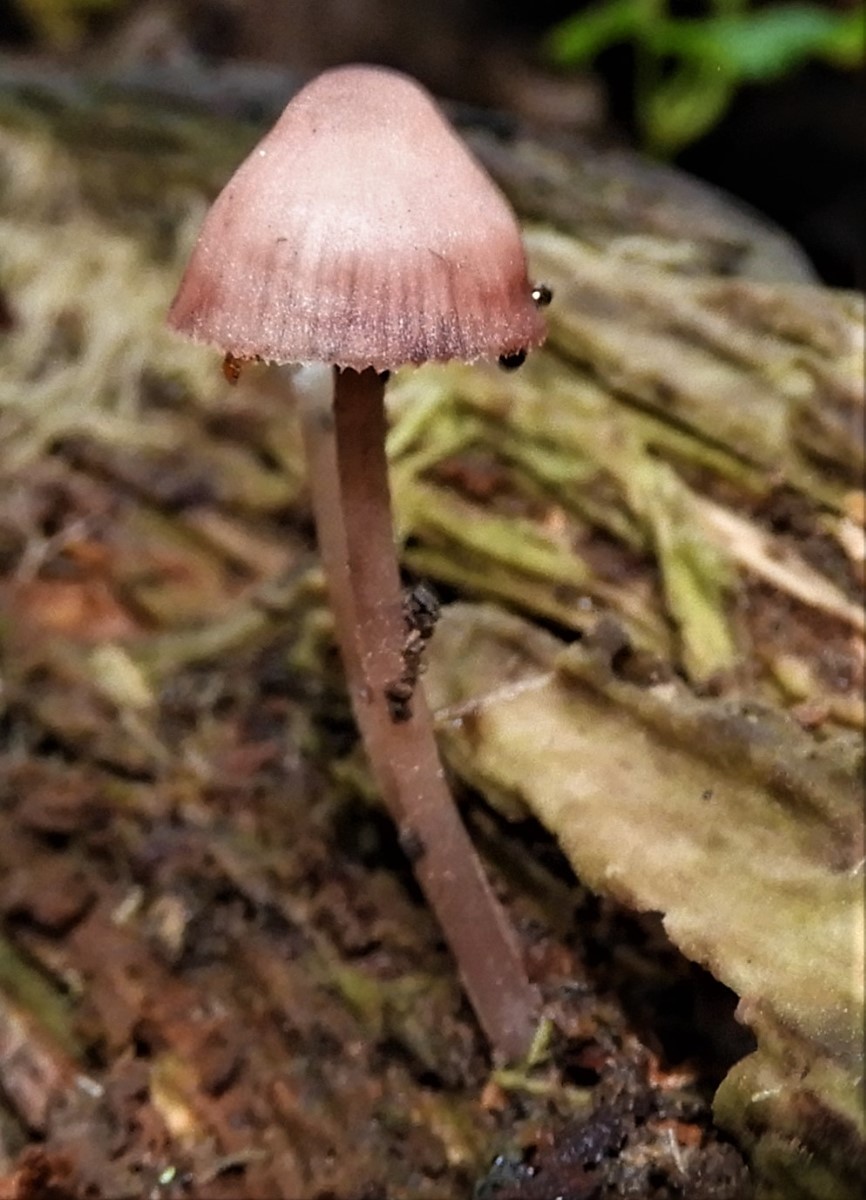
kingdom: Fungi
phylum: Basidiomycota
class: Agaricomycetes
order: Agaricales
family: Mycenaceae
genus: Mycena
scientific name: Mycena haematopus
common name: blødende huesvamp
